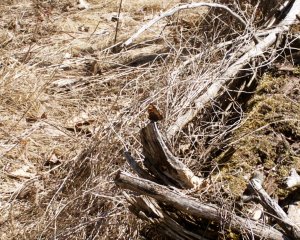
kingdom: Animalia
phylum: Arthropoda
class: Insecta
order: Lepidoptera
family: Nymphalidae
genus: Aglais
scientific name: Aglais milberti
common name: Milbert's Tortoiseshell
